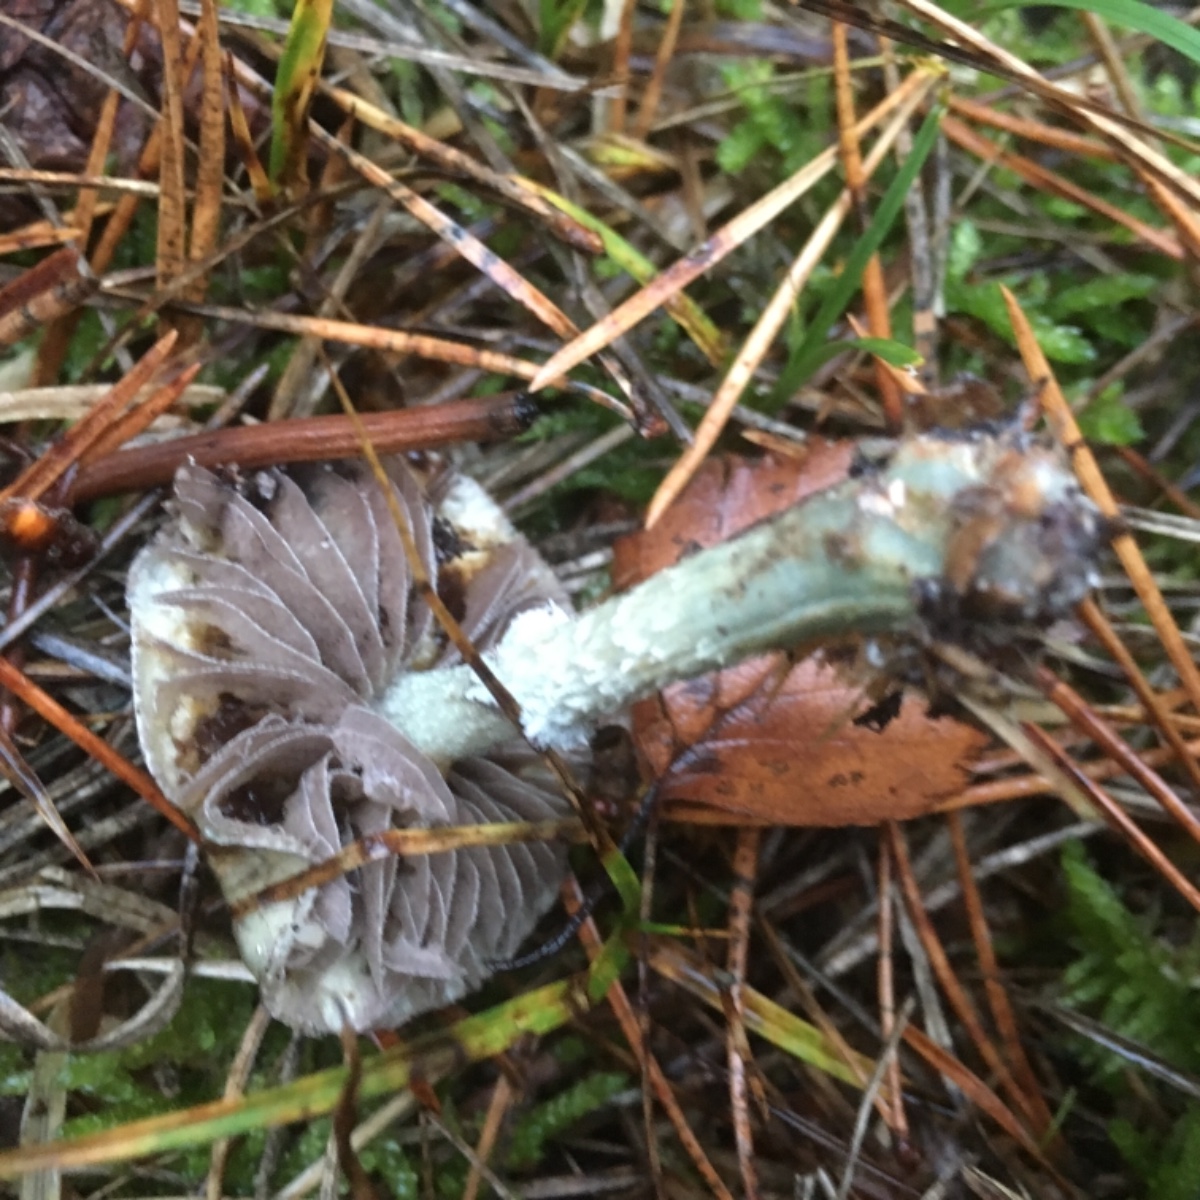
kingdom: Fungi
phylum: Basidiomycota
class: Agaricomycetes
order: Agaricales
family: Strophariaceae
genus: Stropharia
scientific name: Stropharia aeruginosa
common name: spanskgrøn bredblad
